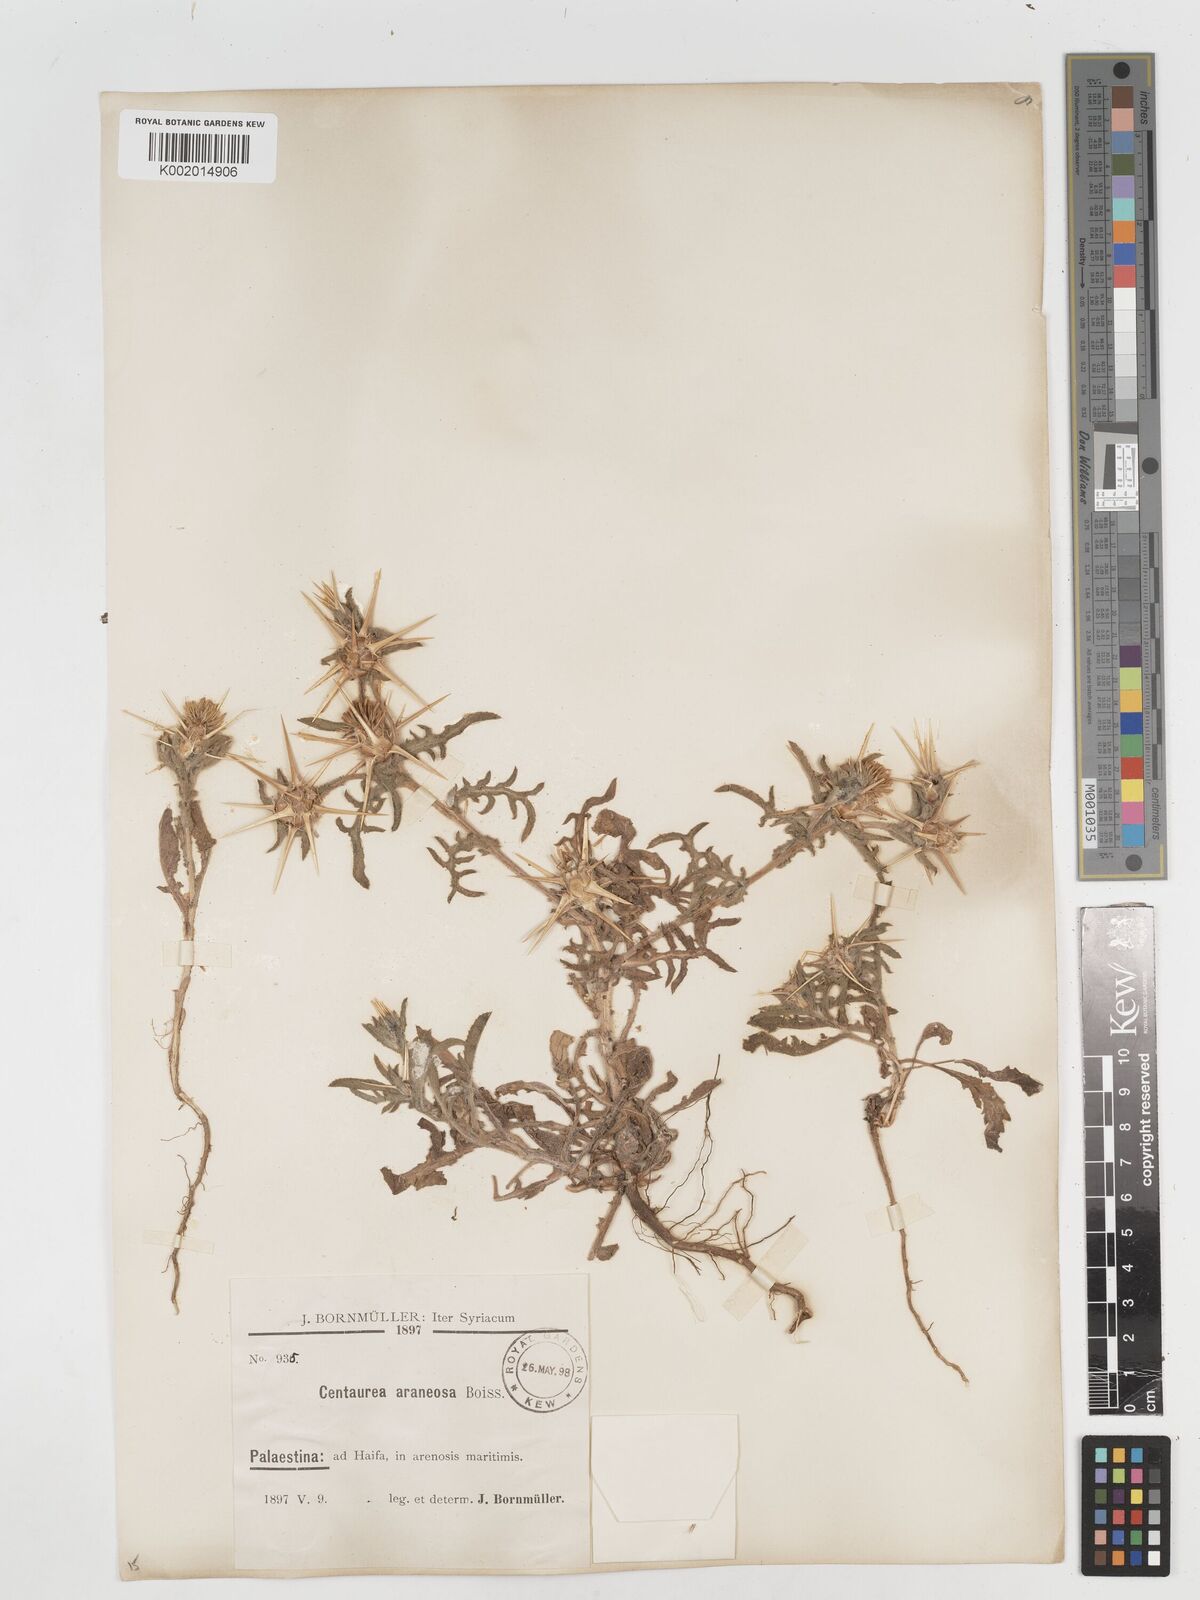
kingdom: Plantae
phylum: Tracheophyta
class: Magnoliopsida
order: Asterales
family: Asteraceae
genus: Centaurea
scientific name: Centaurea procurrens
